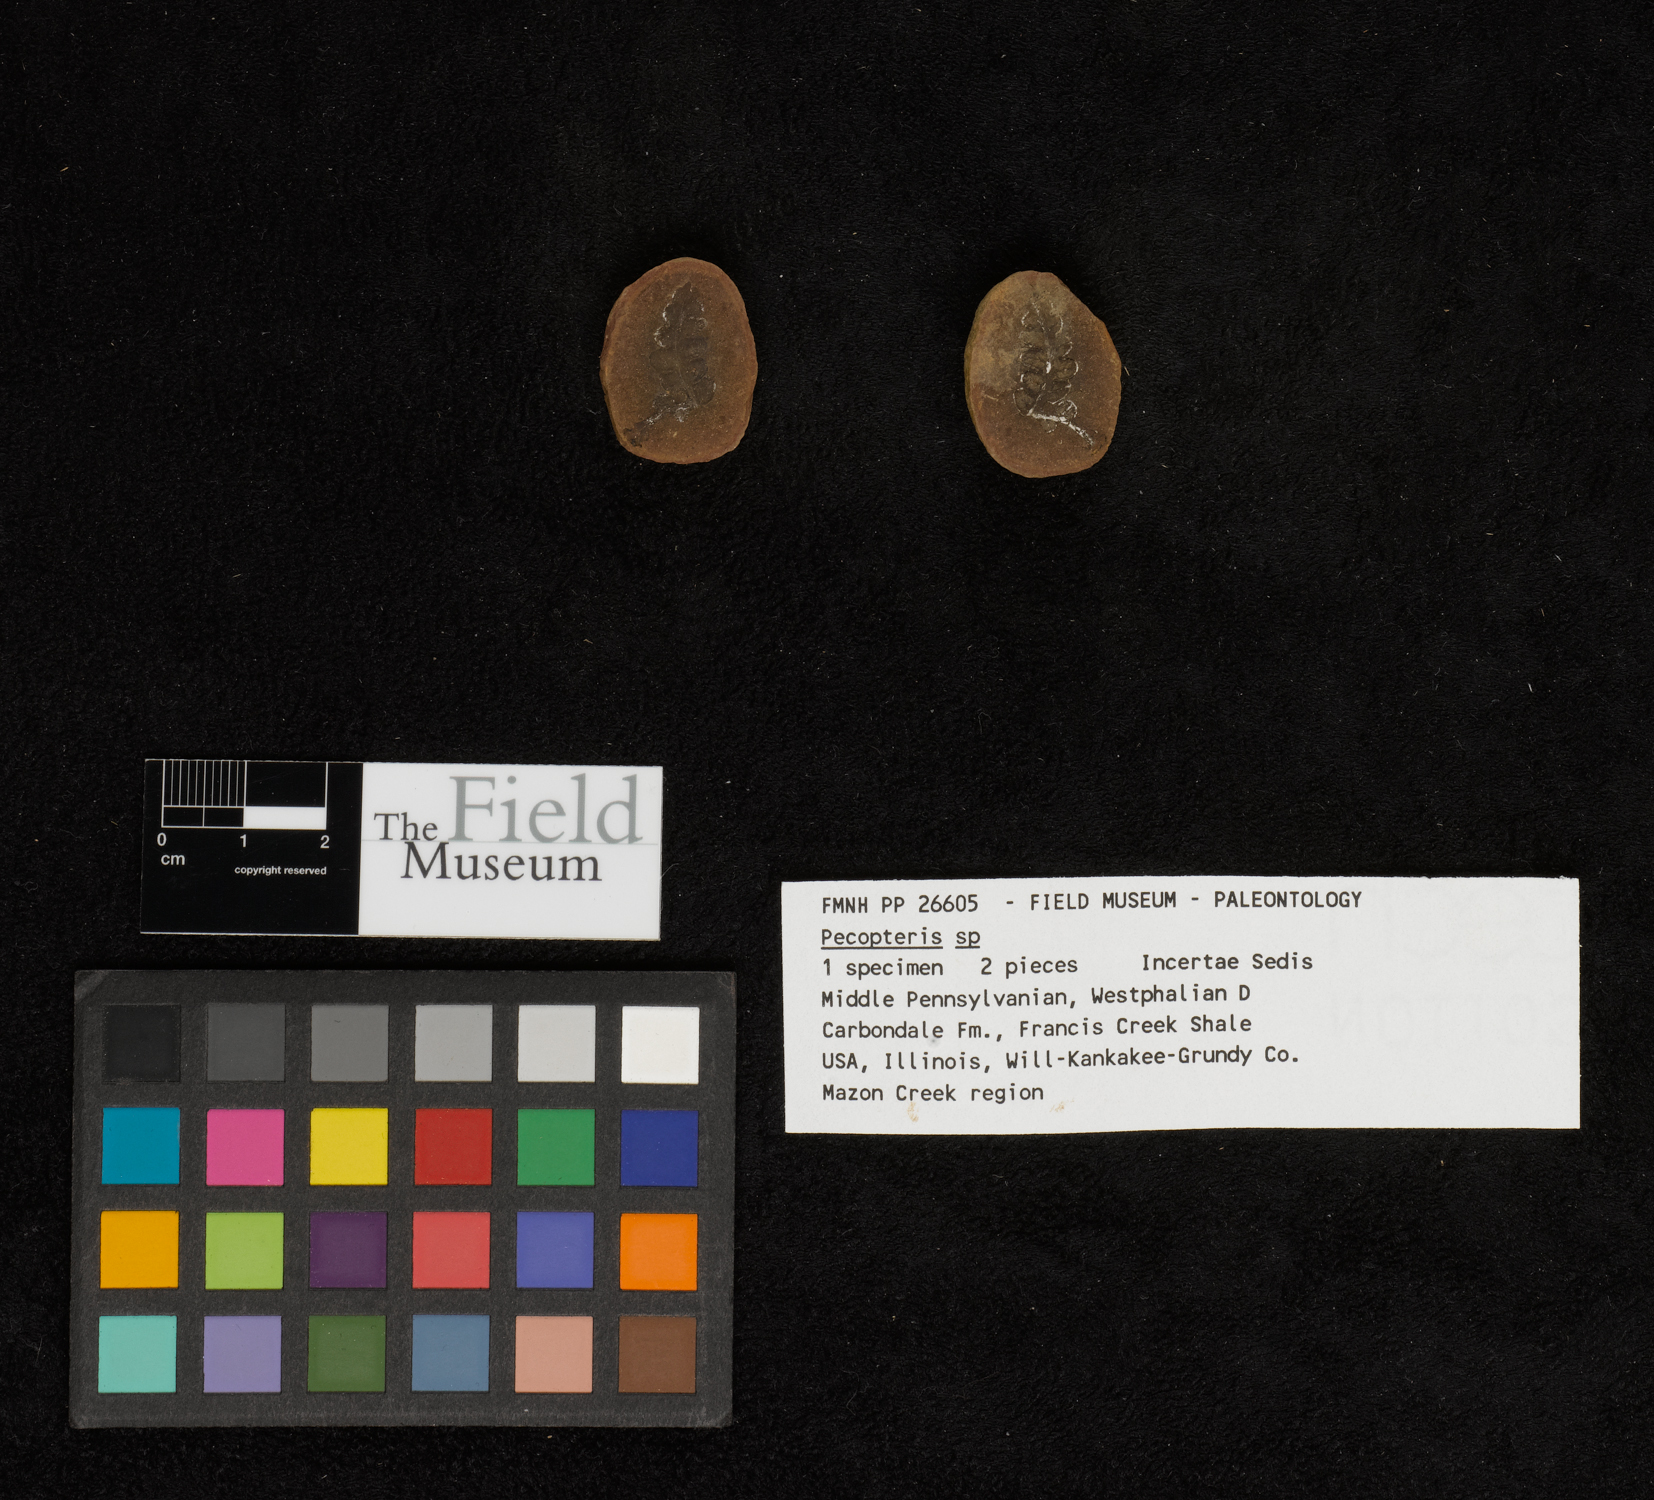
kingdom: Plantae
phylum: Tracheophyta
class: Polypodiopsida
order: Marattiales
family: Asterothecaceae
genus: Pecopteris
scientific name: Pecopteris
